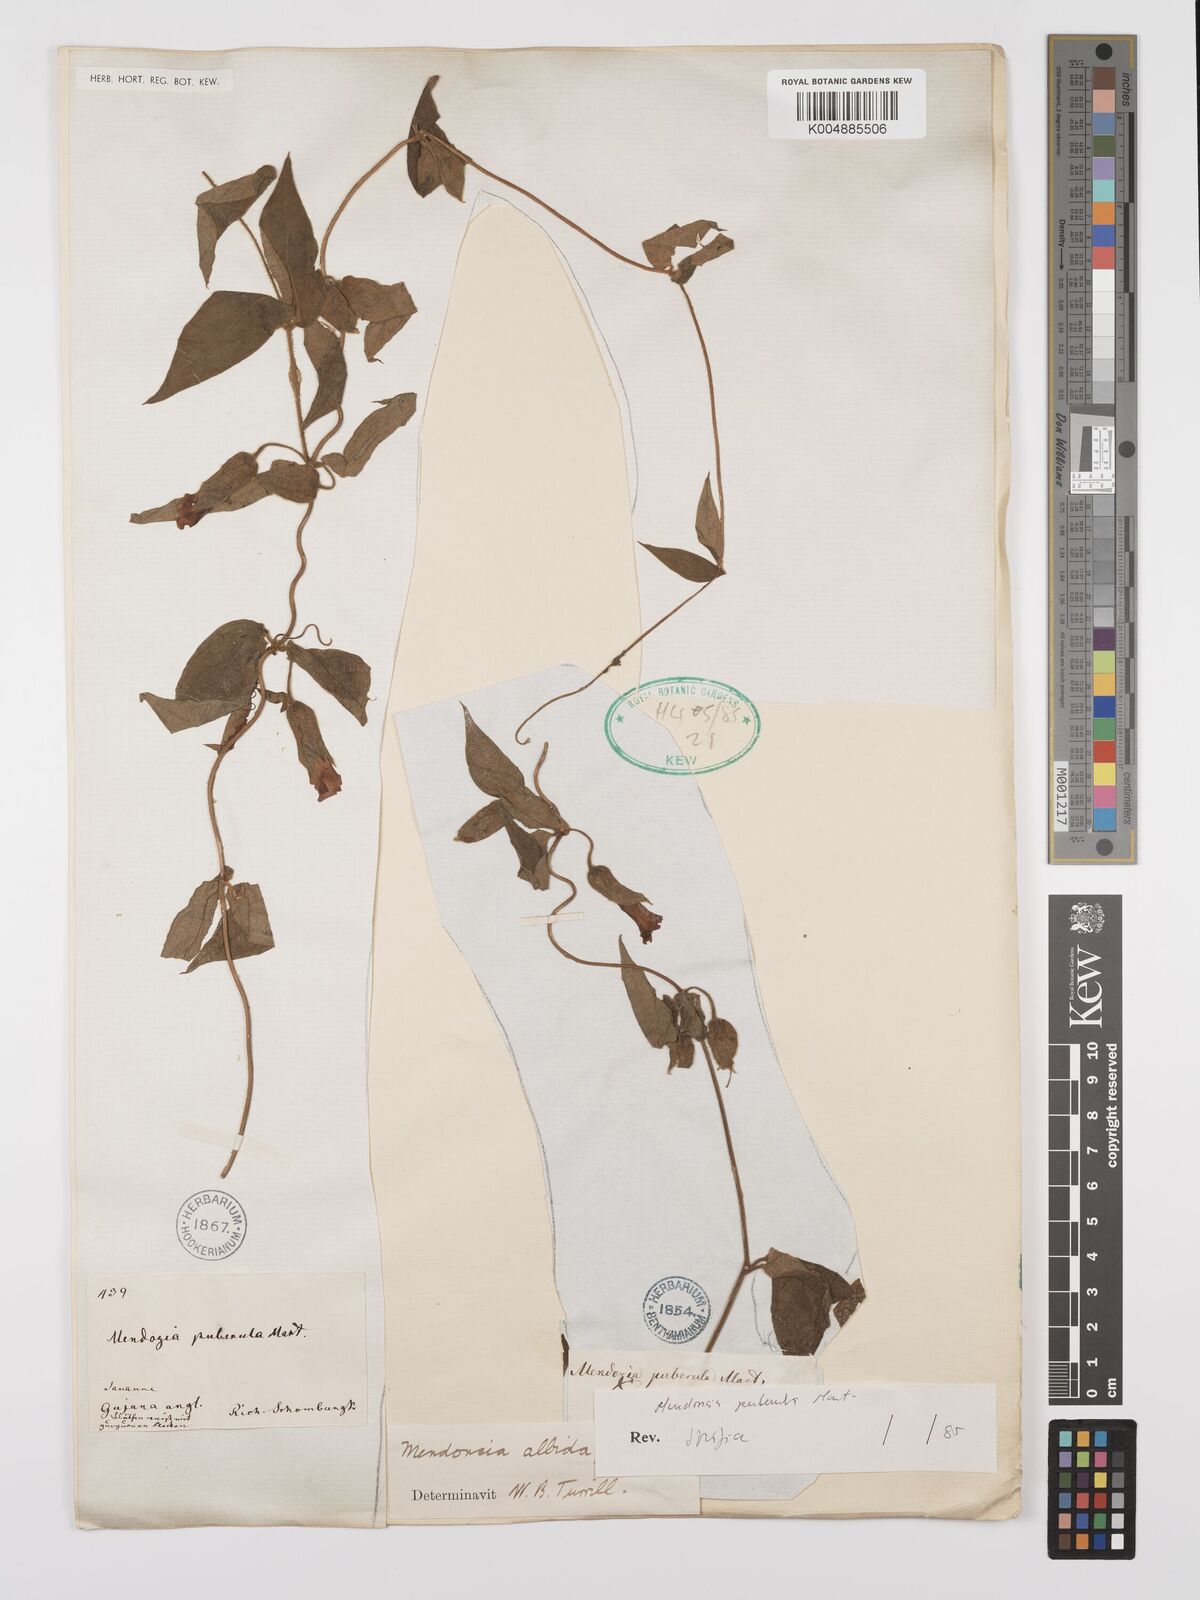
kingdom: Plantae
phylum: Tracheophyta
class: Magnoliopsida
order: Lamiales
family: Acanthaceae
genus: Mendoncia
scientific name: Mendoncia puberula
